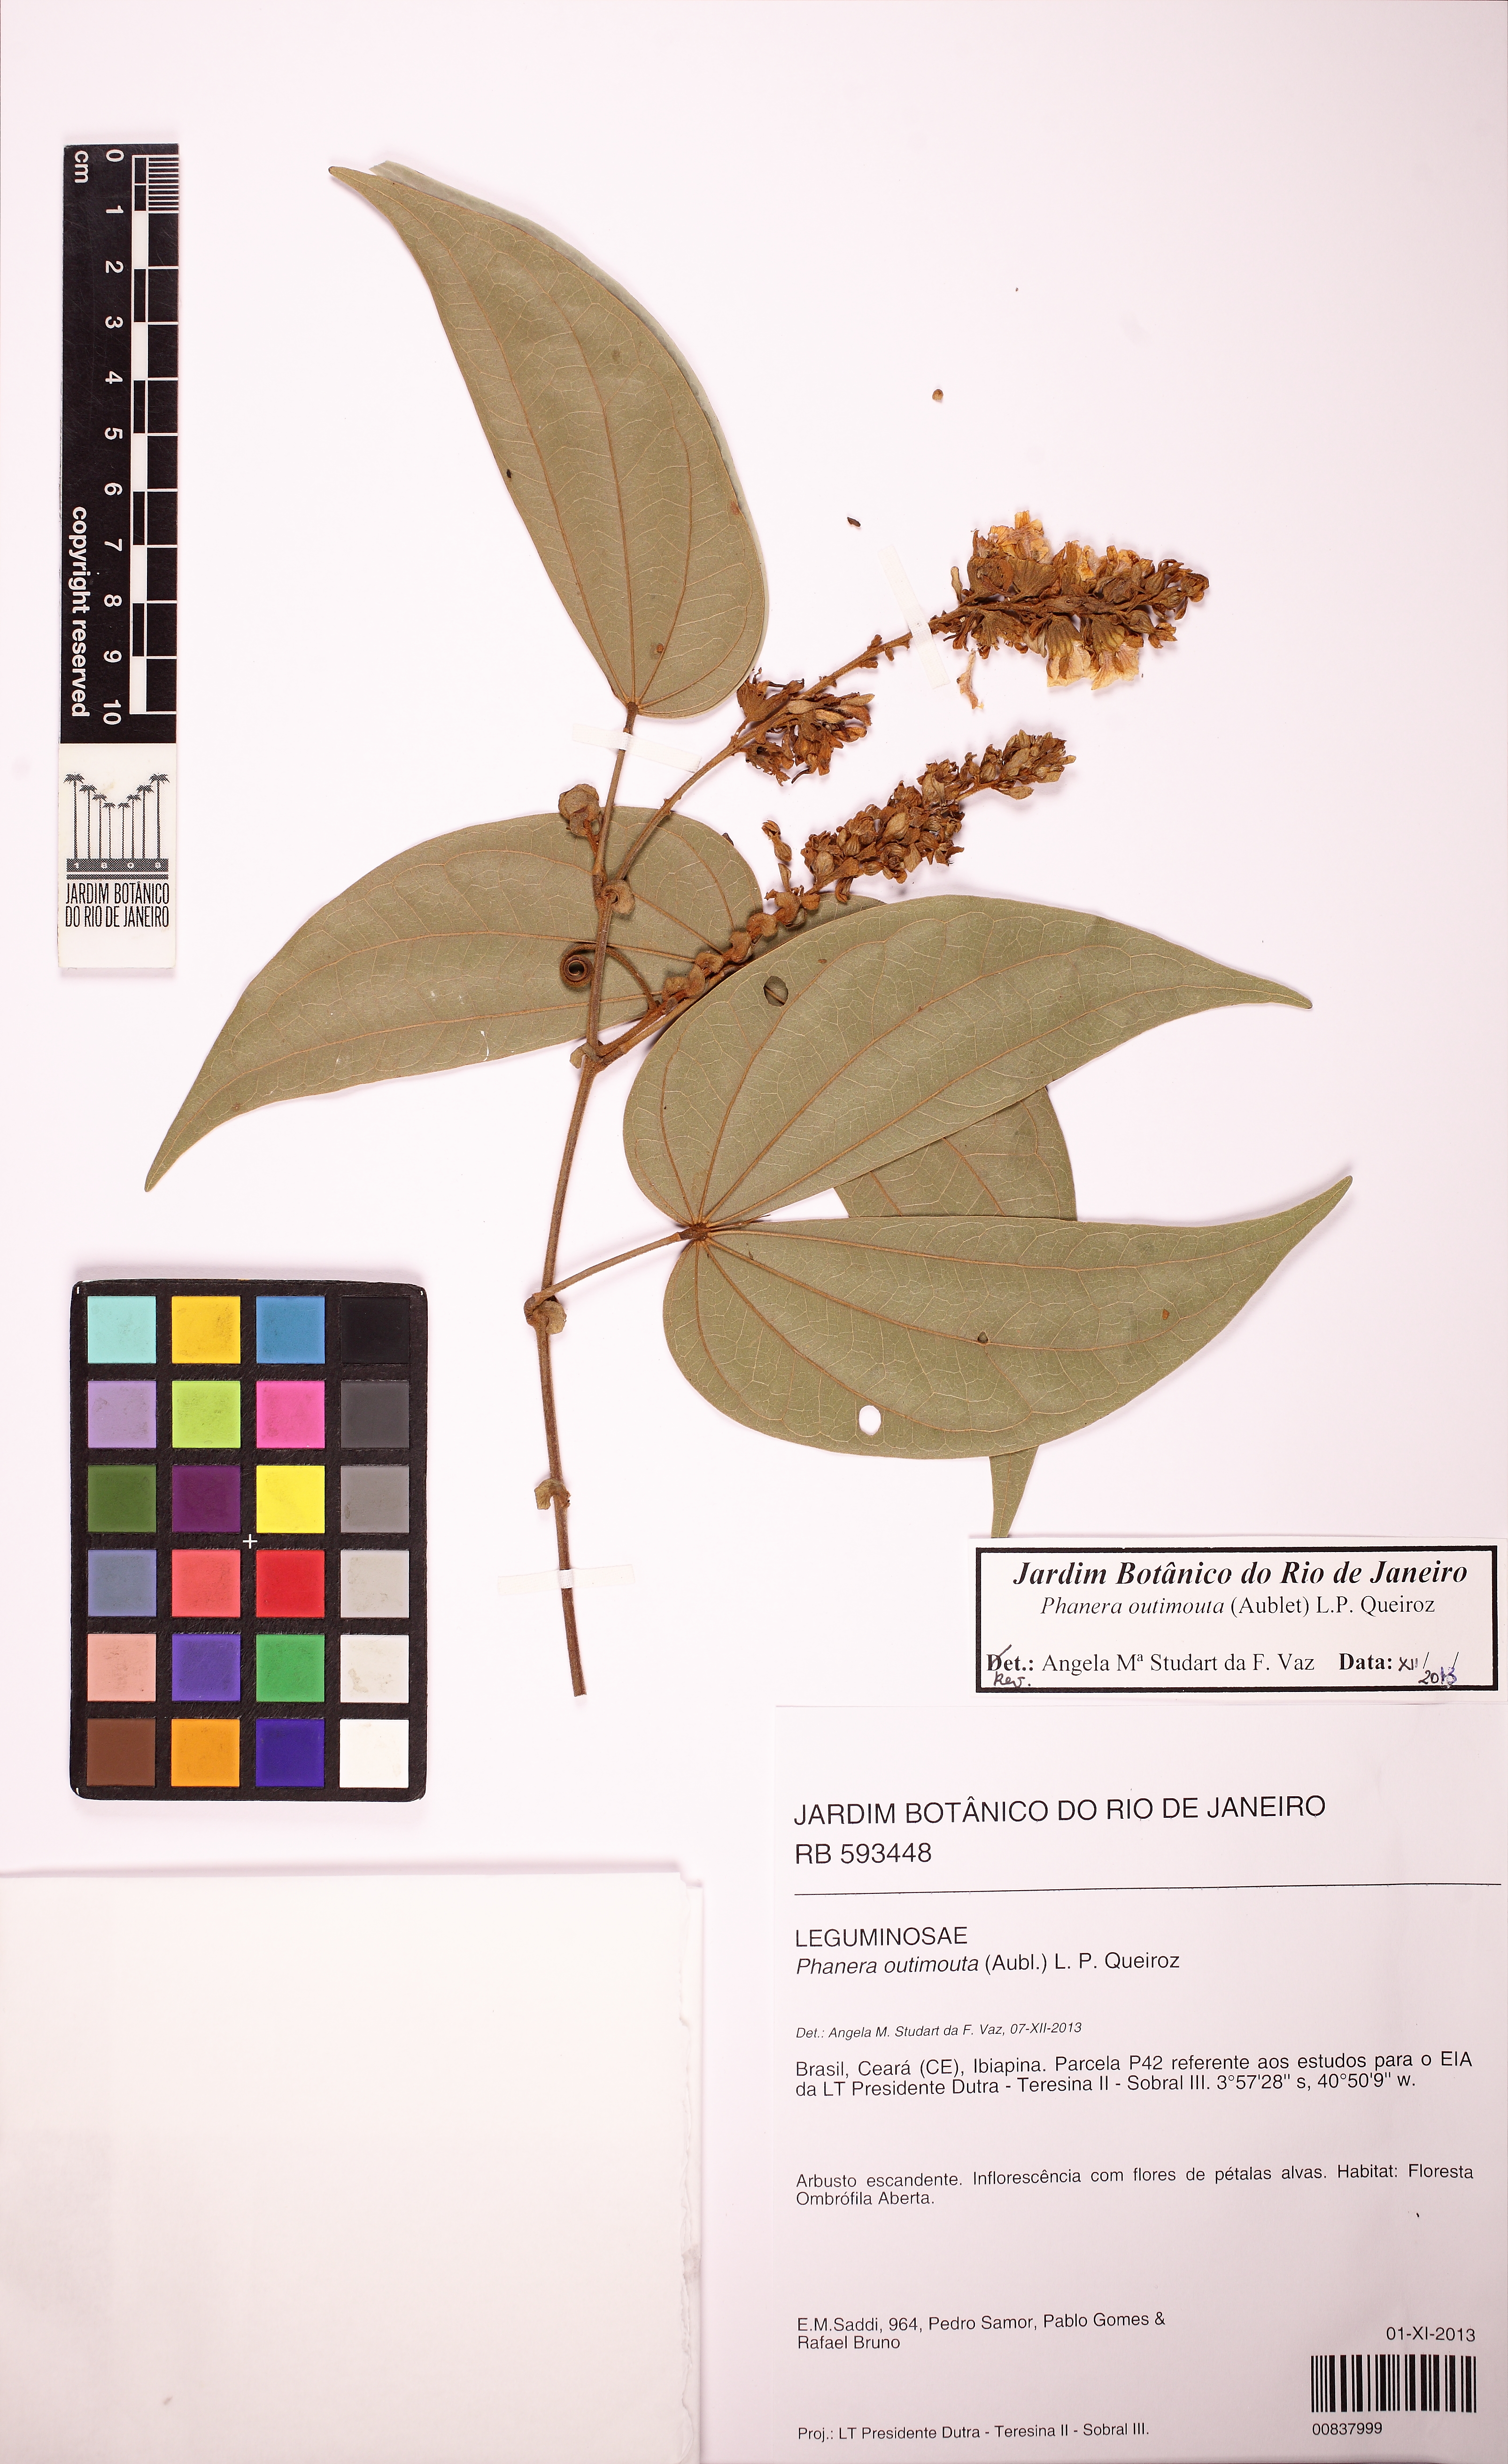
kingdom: Plantae
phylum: Tracheophyta
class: Magnoliopsida
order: Fabales
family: Fabaceae
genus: Schnella
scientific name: Schnella outimouta
